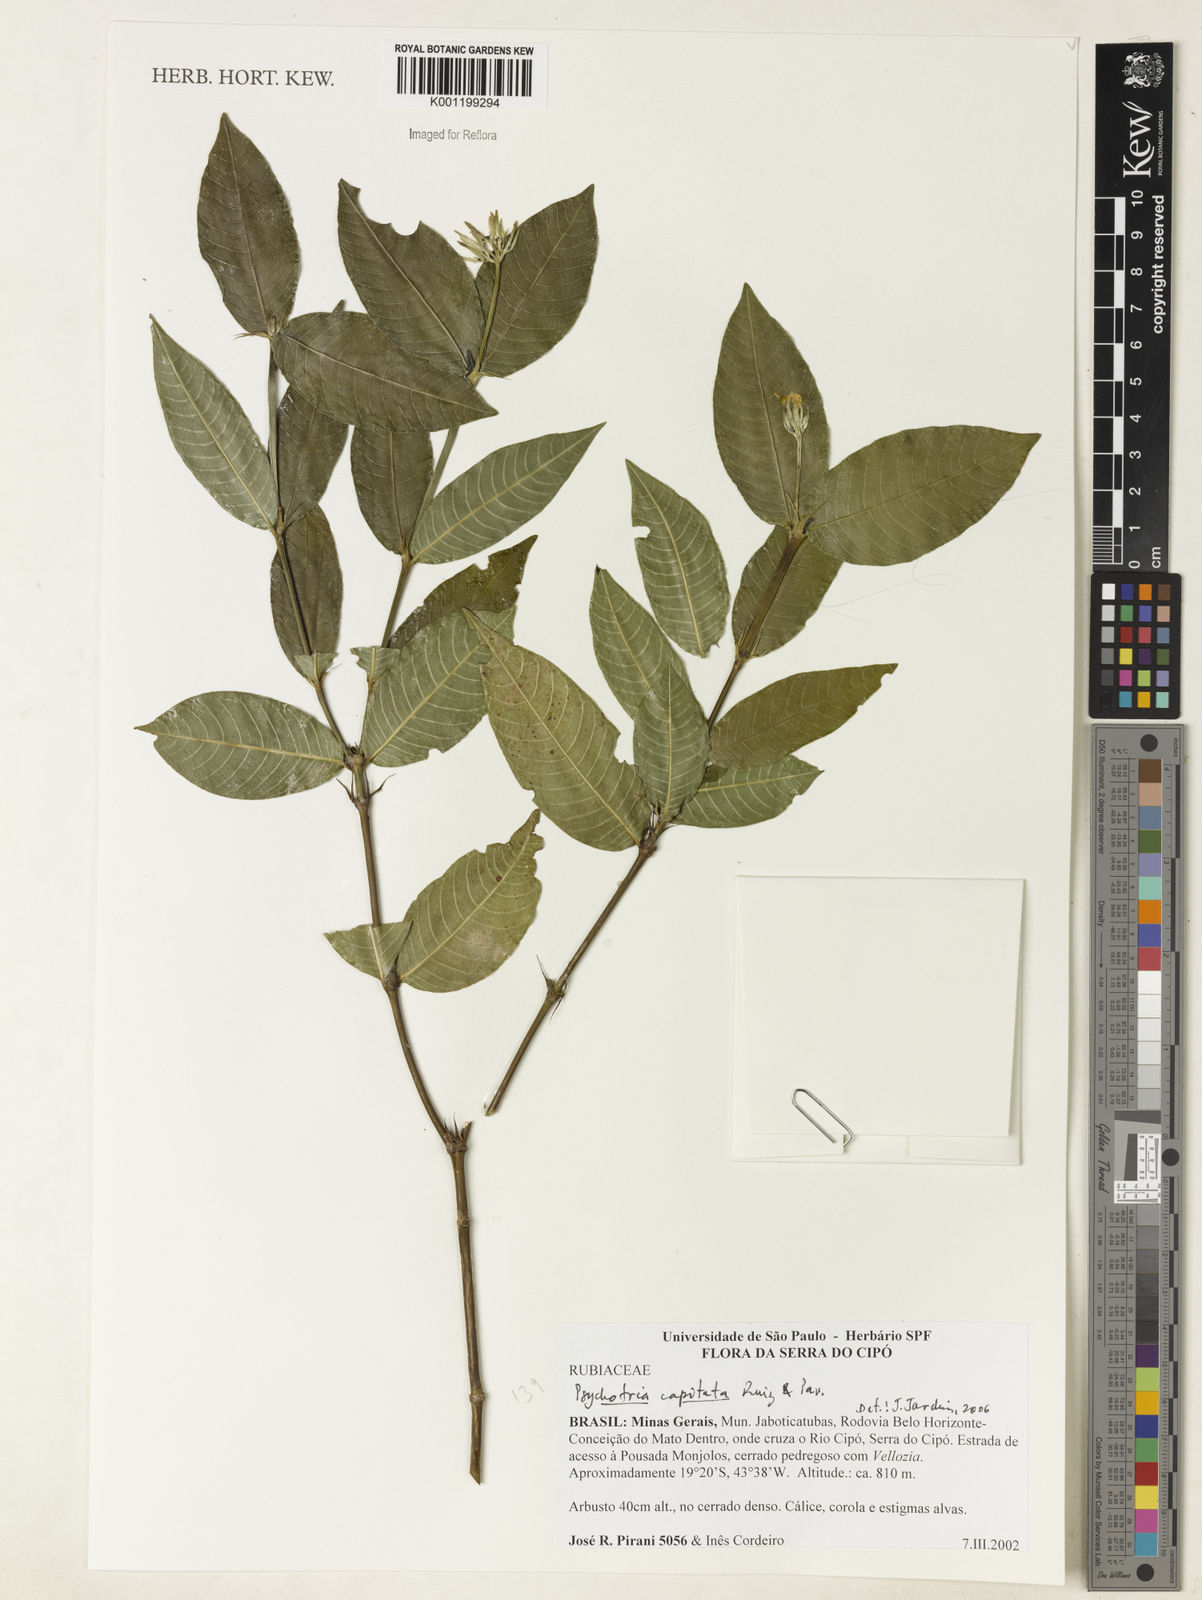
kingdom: Plantae
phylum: Tracheophyta
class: Magnoliopsida
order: Gentianales
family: Rubiaceae
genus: Palicourea
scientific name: Palicourea violacea
